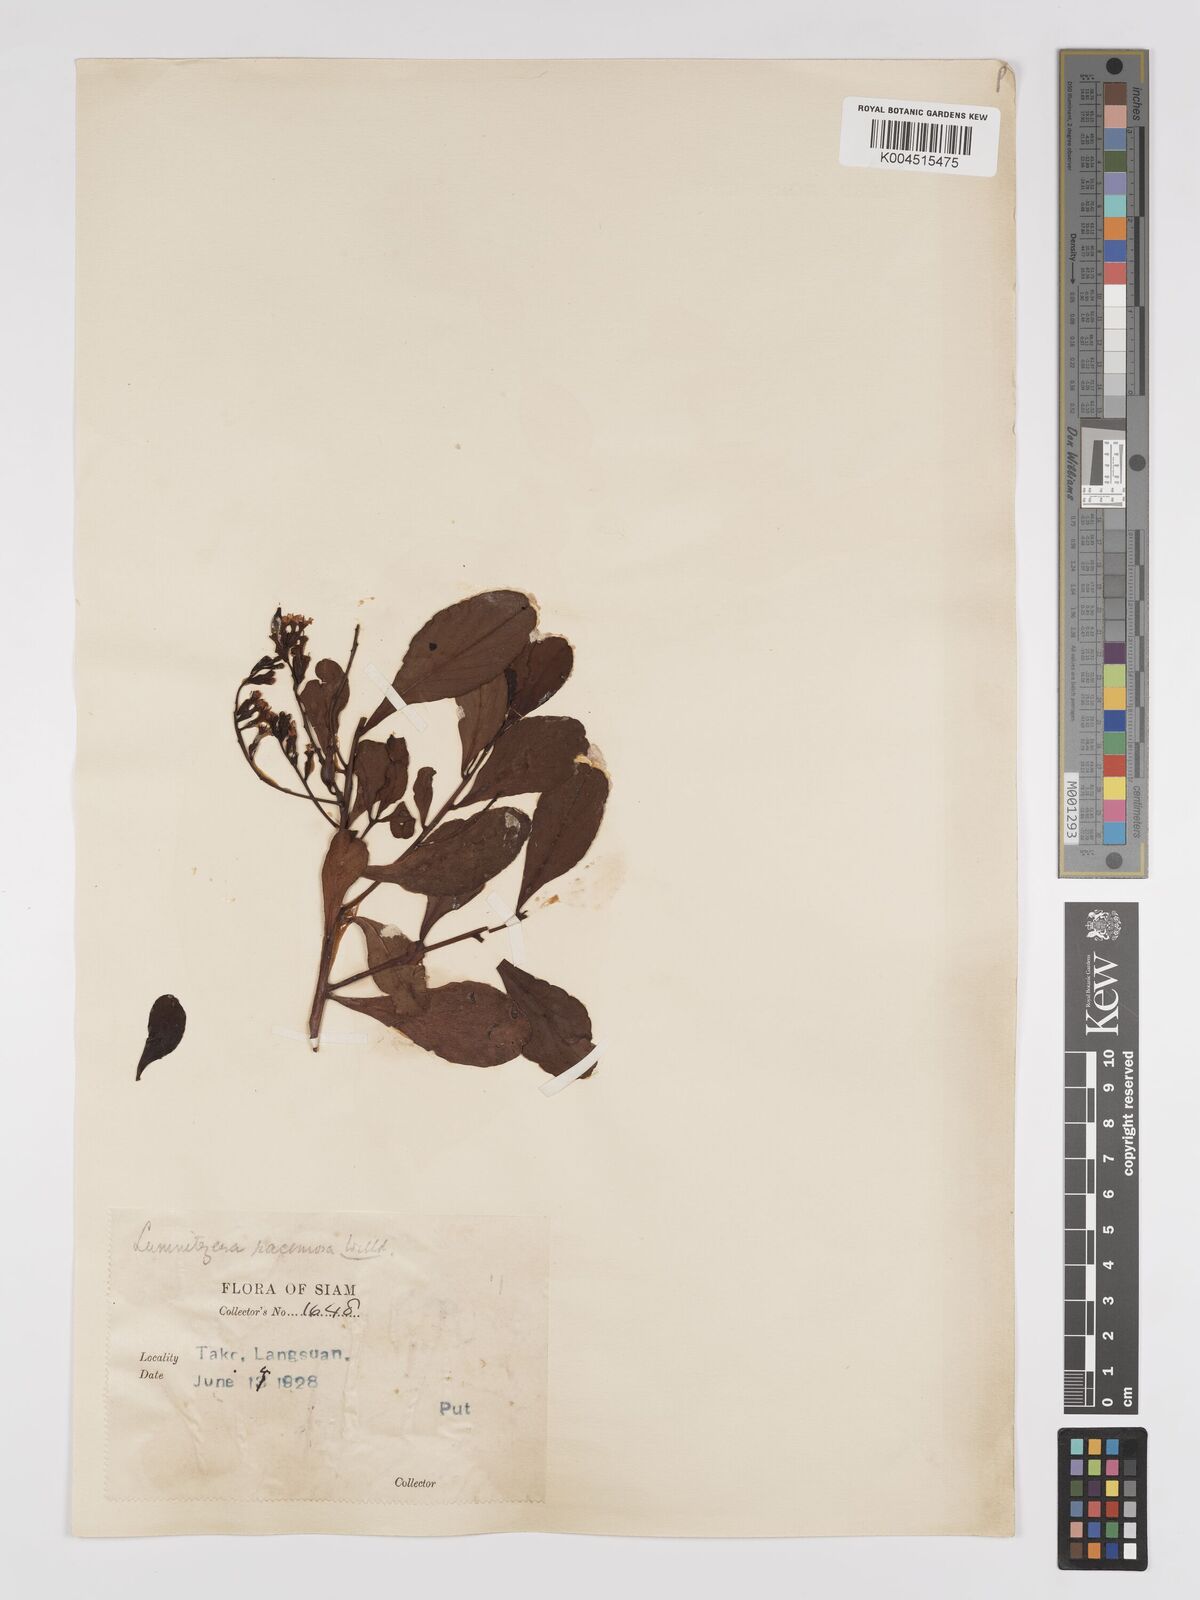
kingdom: Plantae
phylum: Tracheophyta
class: Magnoliopsida
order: Myrtales
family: Combretaceae
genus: Lumnitzera
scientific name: Lumnitzera racemosa
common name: White-flowered black mangrove
